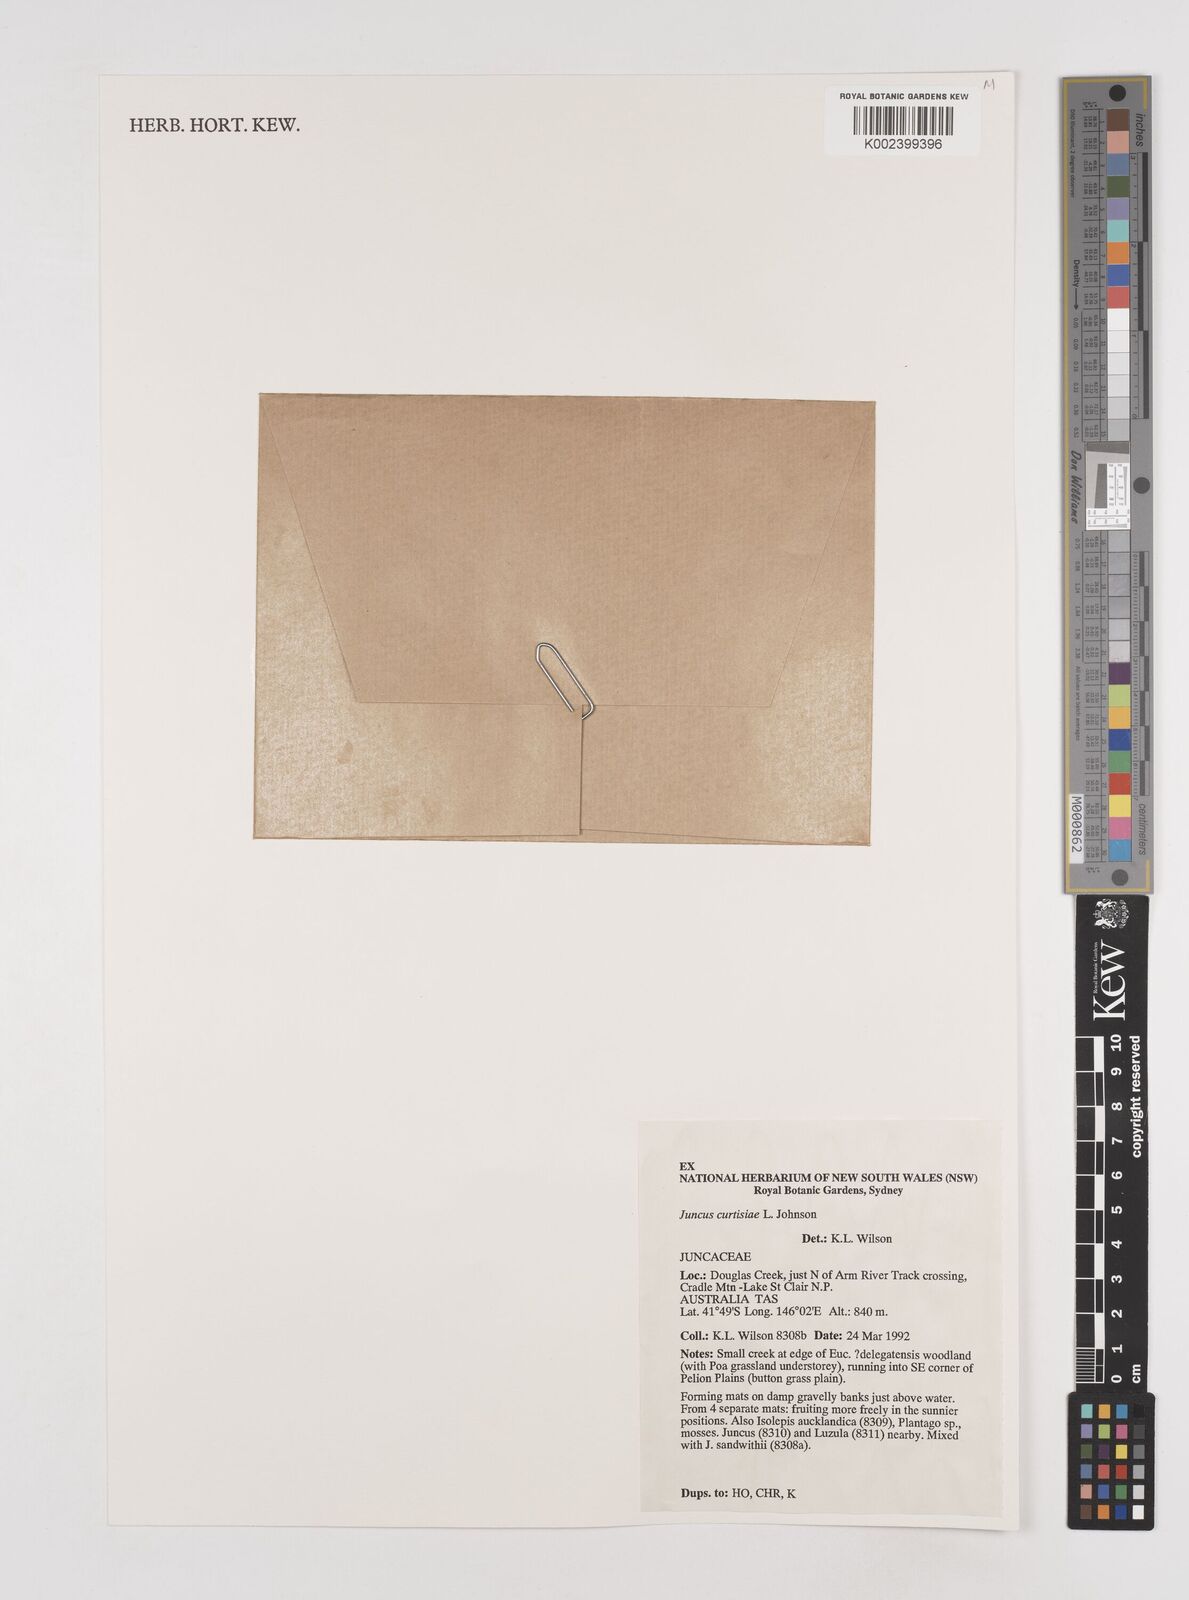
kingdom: Plantae
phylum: Tracheophyta
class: Liliopsida
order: Poales
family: Juncaceae
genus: Juncus
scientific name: Juncus curtisiae
